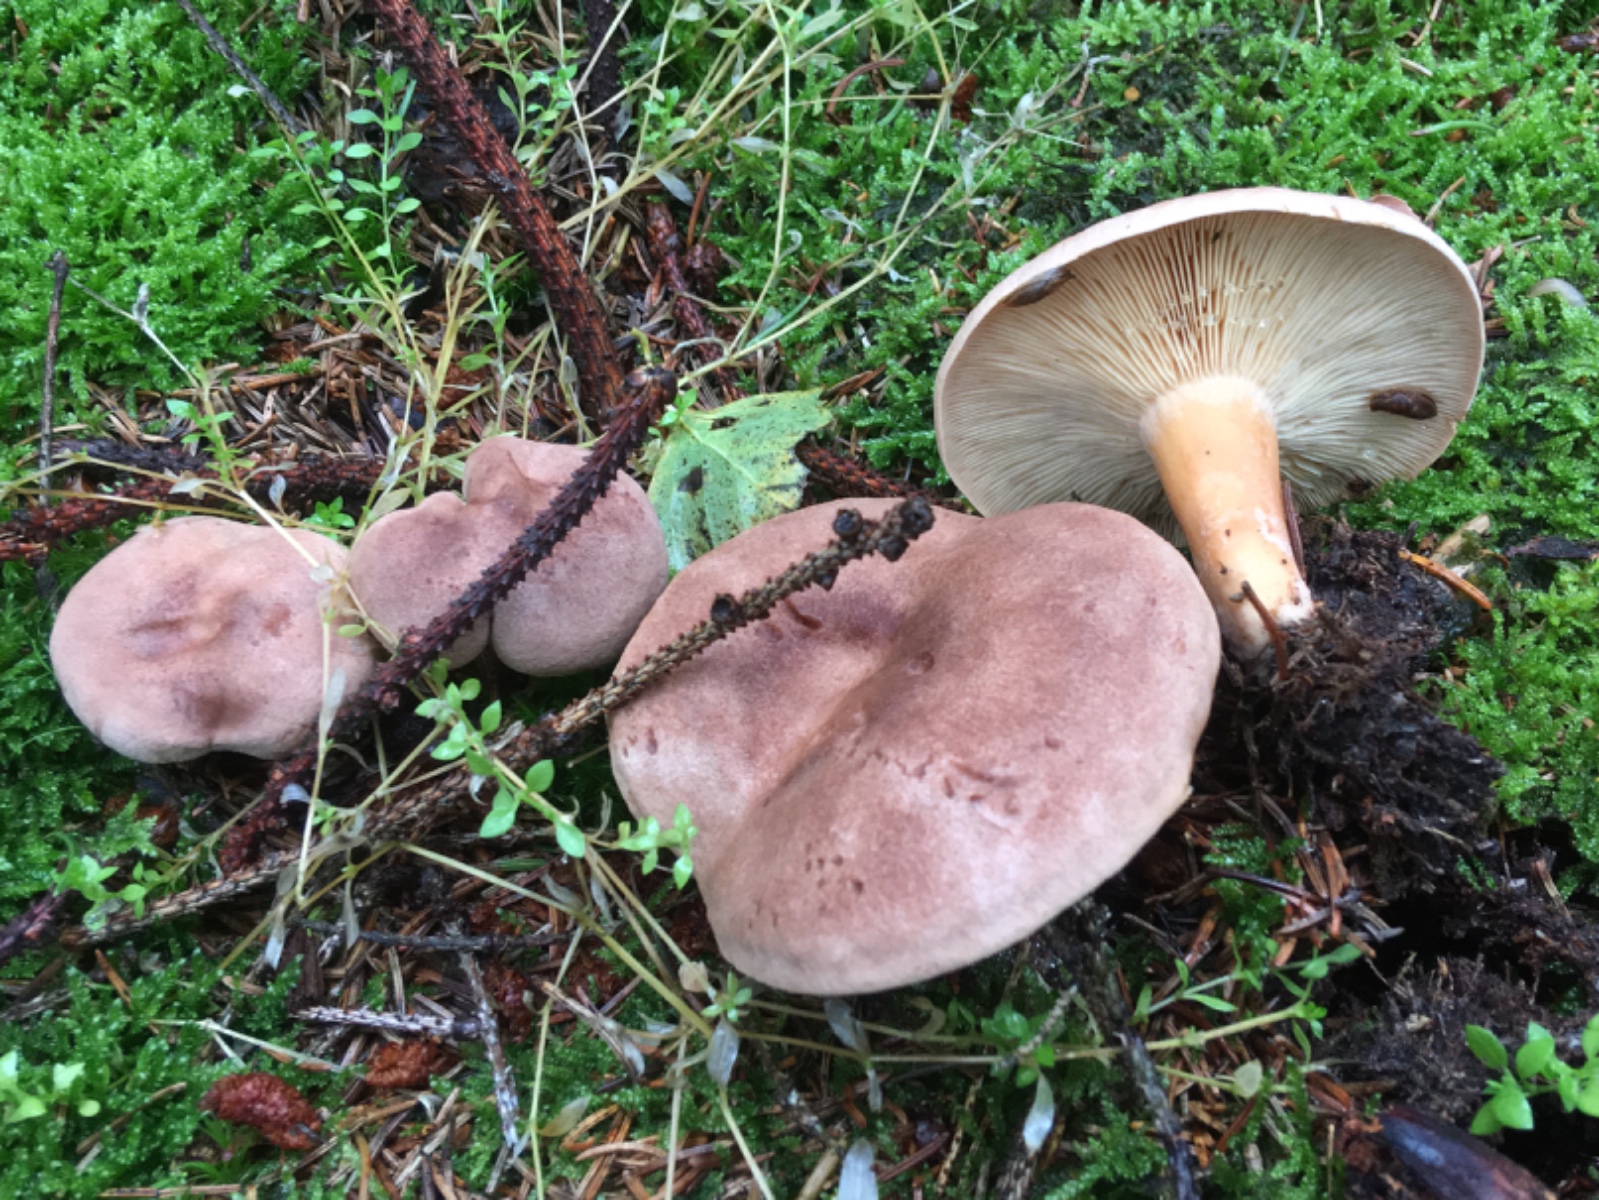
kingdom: Fungi
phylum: Basidiomycota
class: Agaricomycetes
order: Russulales
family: Russulaceae
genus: Lactarius
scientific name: Lactarius helvus
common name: mose-mælkehat
